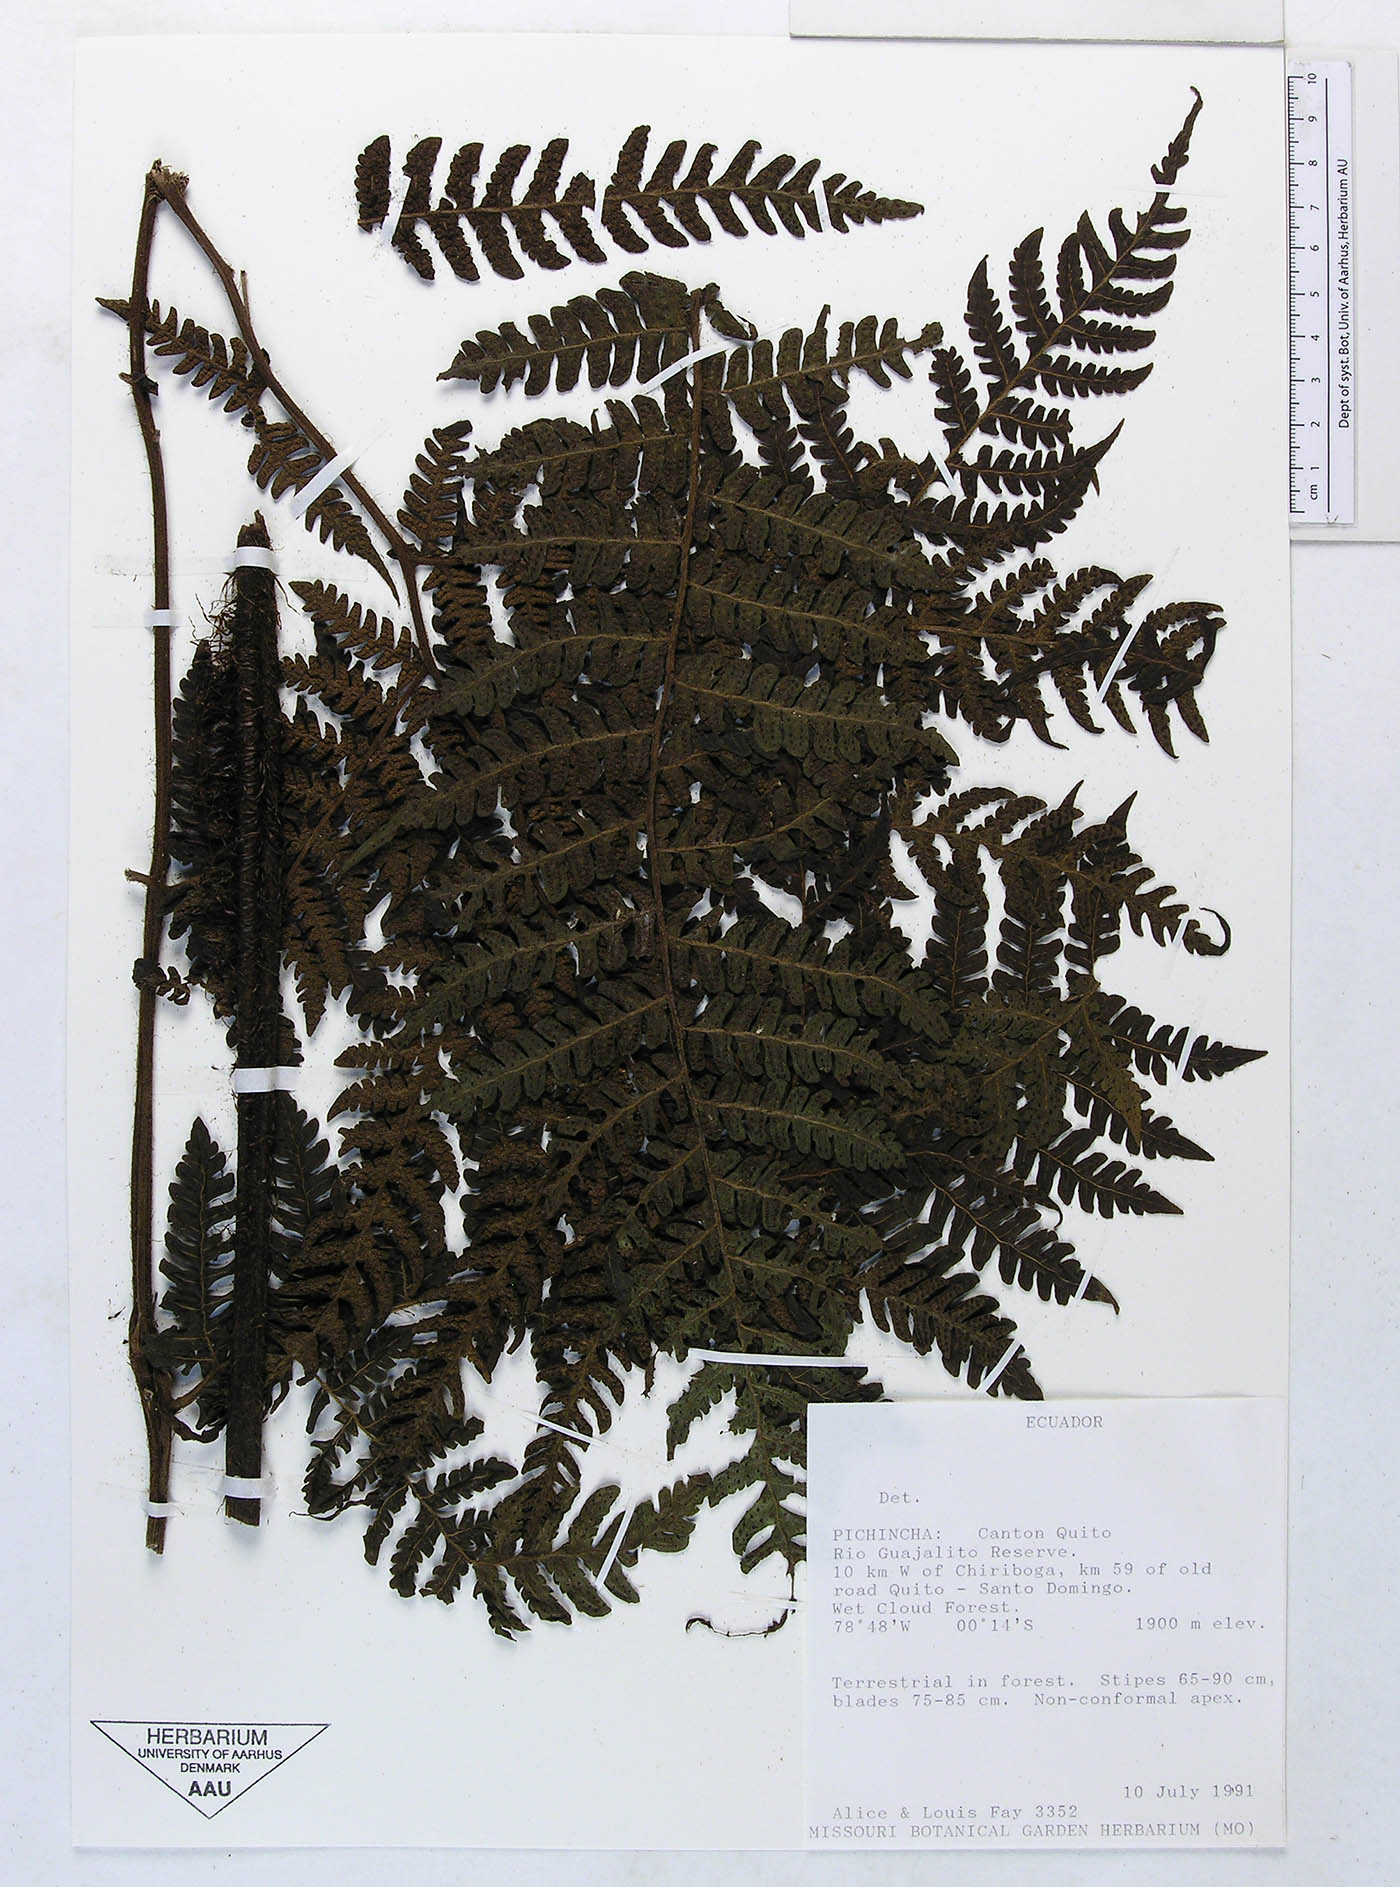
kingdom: Plantae
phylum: Tracheophyta
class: Polypodiopsida
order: Polypodiales
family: Dryopteridaceae
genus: Megalastrum
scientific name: Megalastrum vastum
